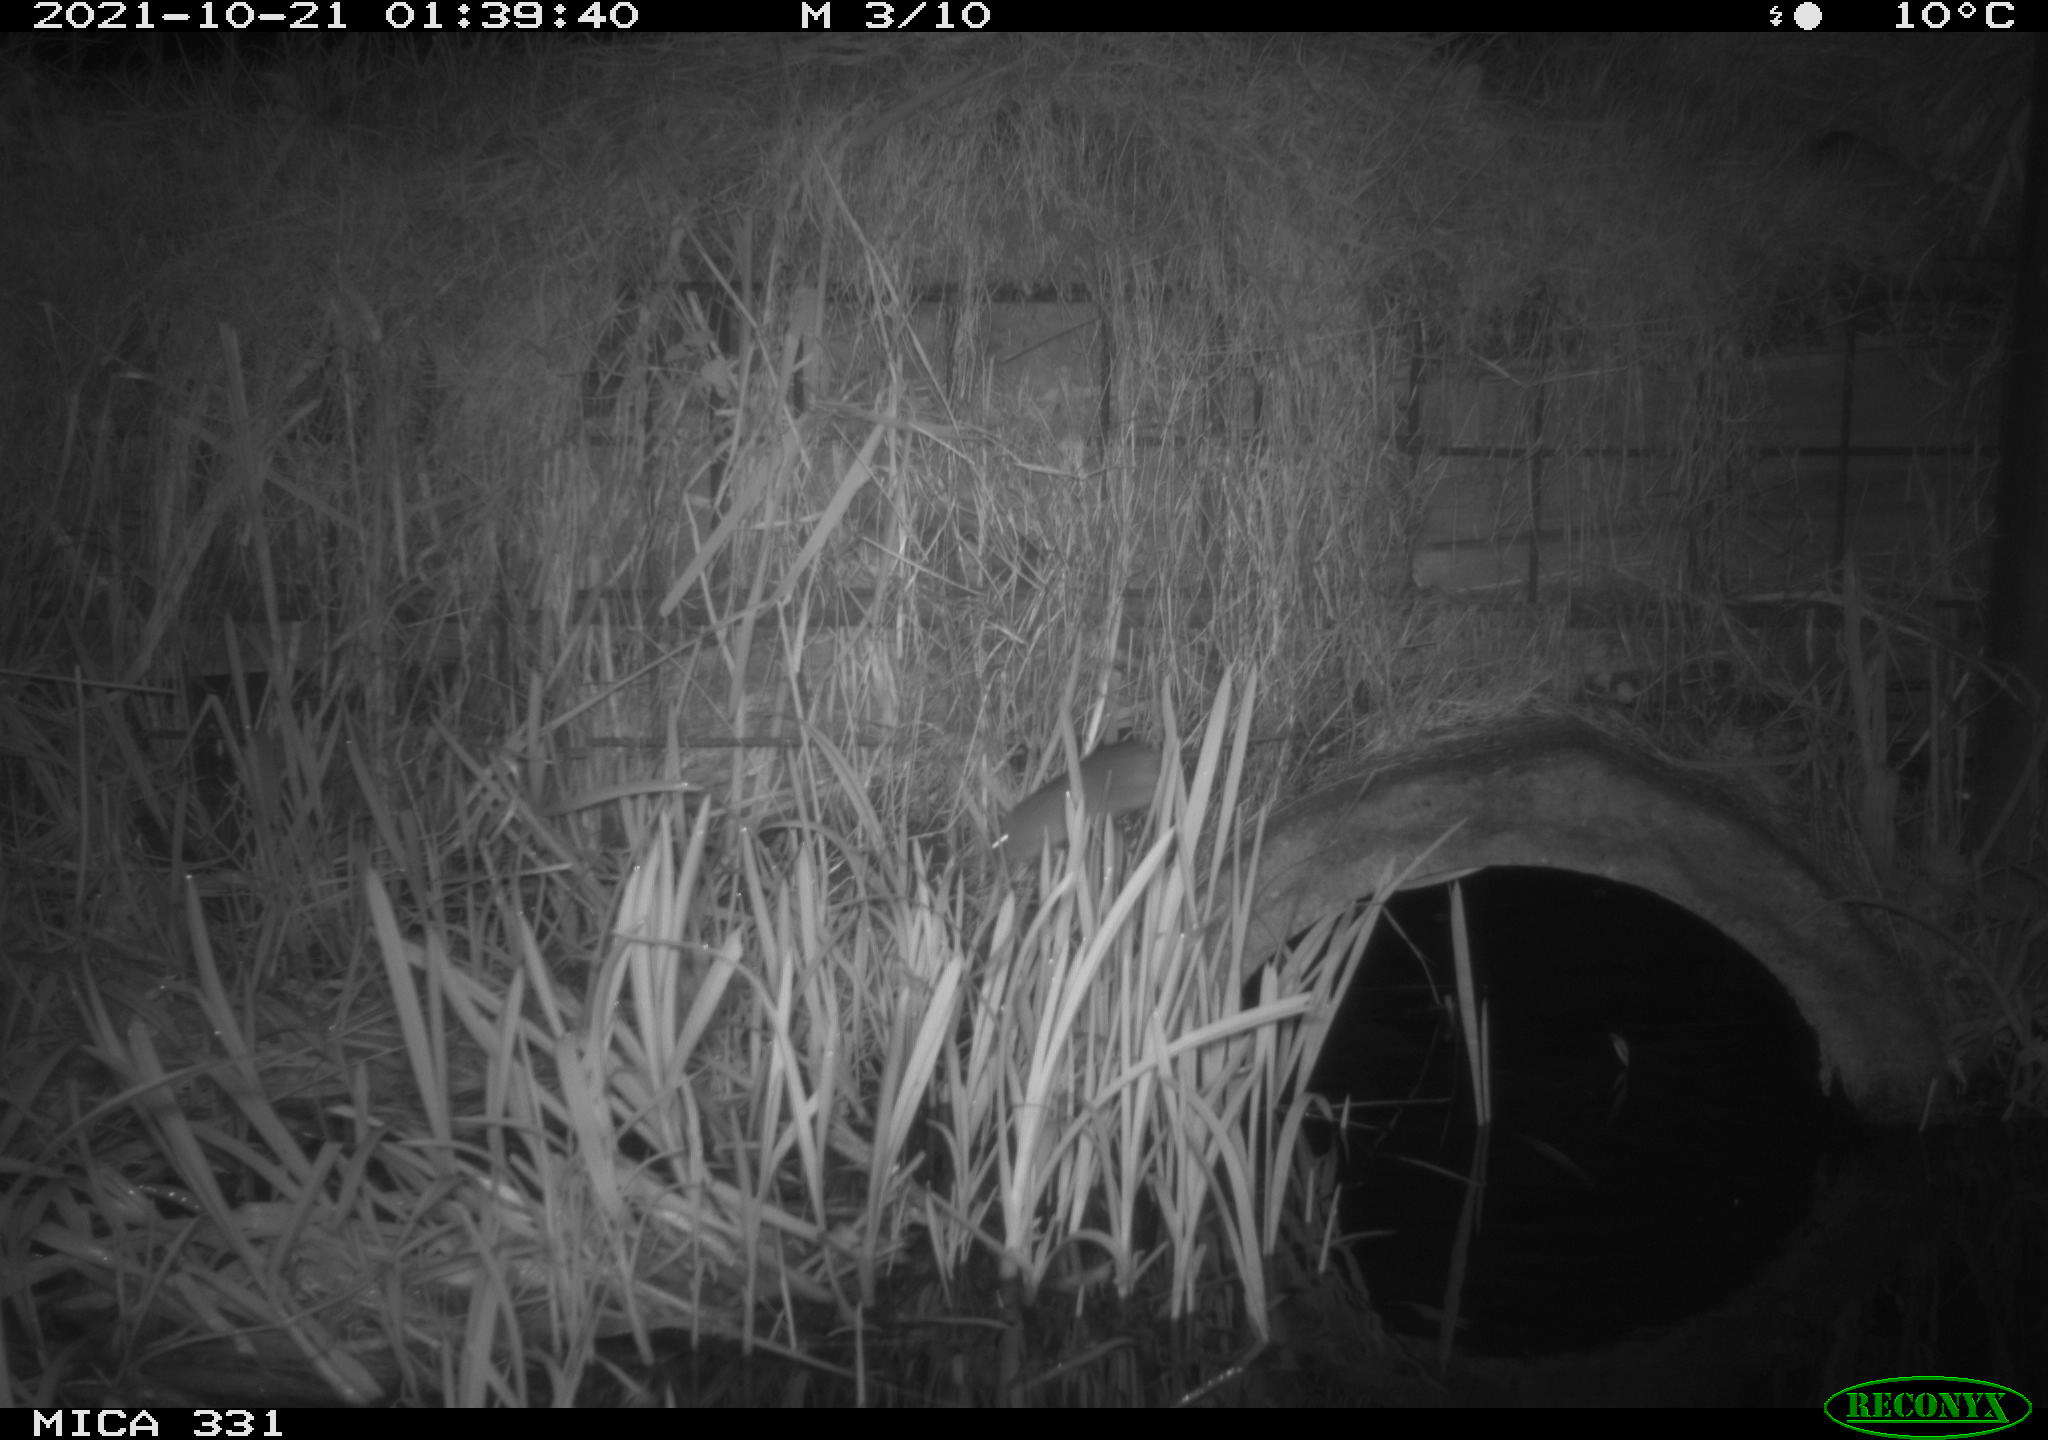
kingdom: Animalia
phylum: Chordata
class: Mammalia
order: Rodentia
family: Muridae
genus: Rattus
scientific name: Rattus norvegicus
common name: Brown rat
